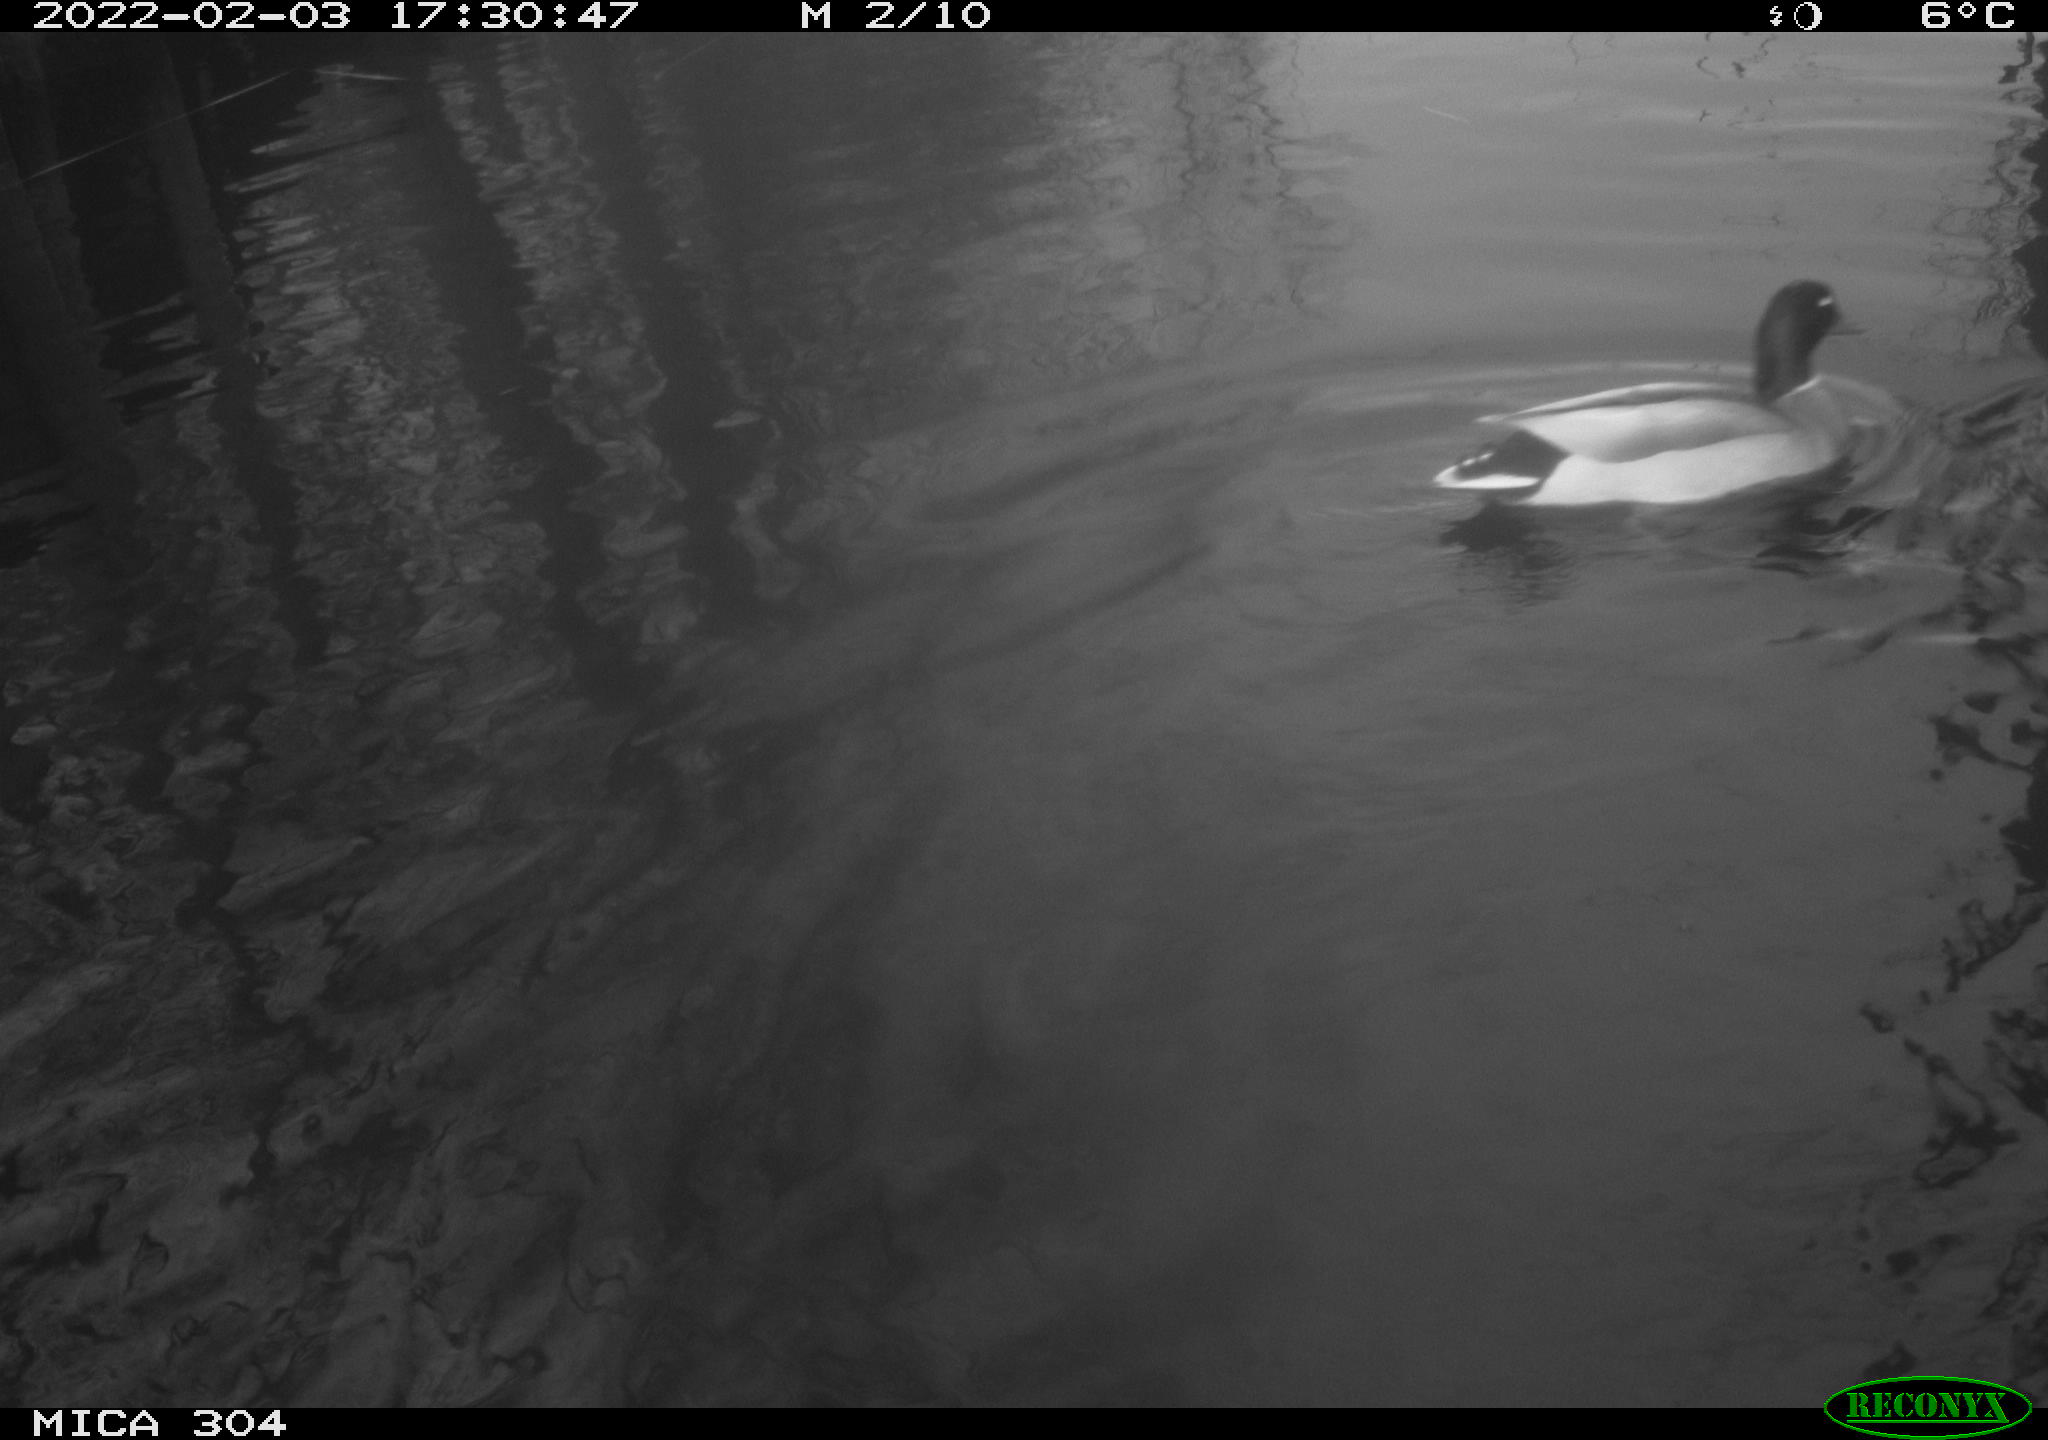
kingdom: Animalia
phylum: Chordata
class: Aves
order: Anseriformes
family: Anatidae
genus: Anas
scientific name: Anas platyrhynchos
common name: Mallard
